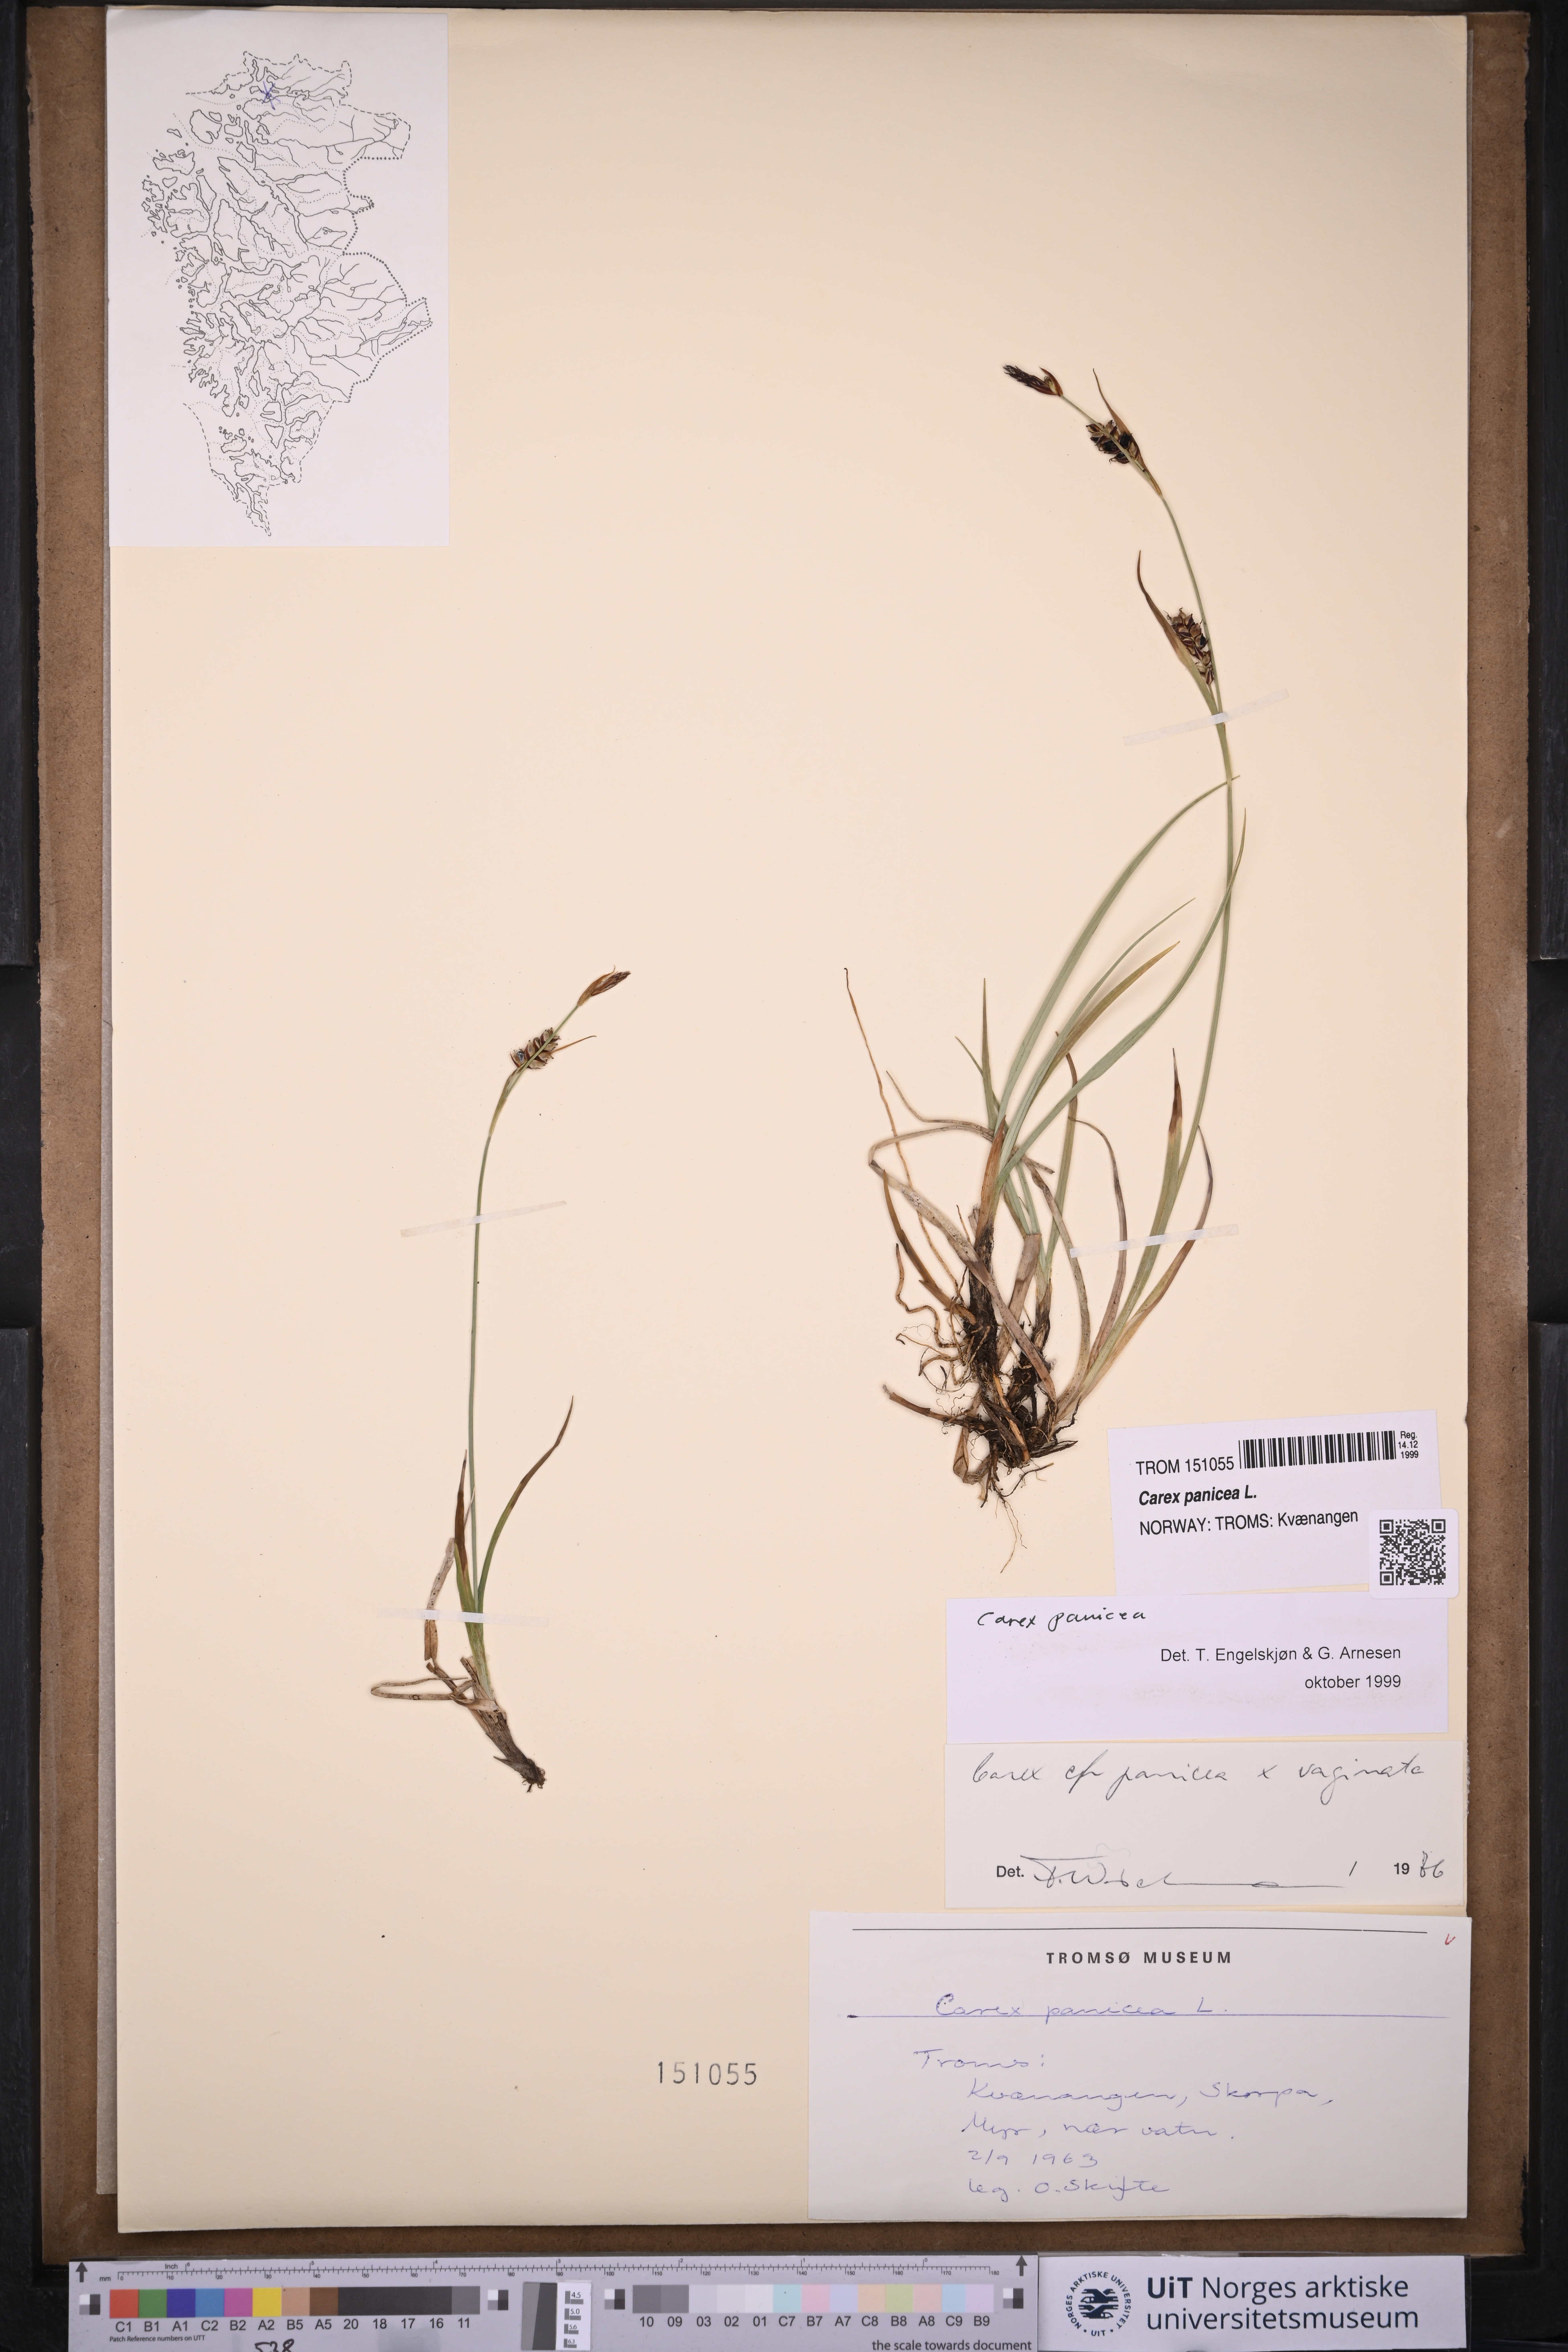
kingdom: Plantae
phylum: Tracheophyta
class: Liliopsida
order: Poales
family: Cyperaceae
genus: Carex
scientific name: Carex panicea
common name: Carnation sedge
